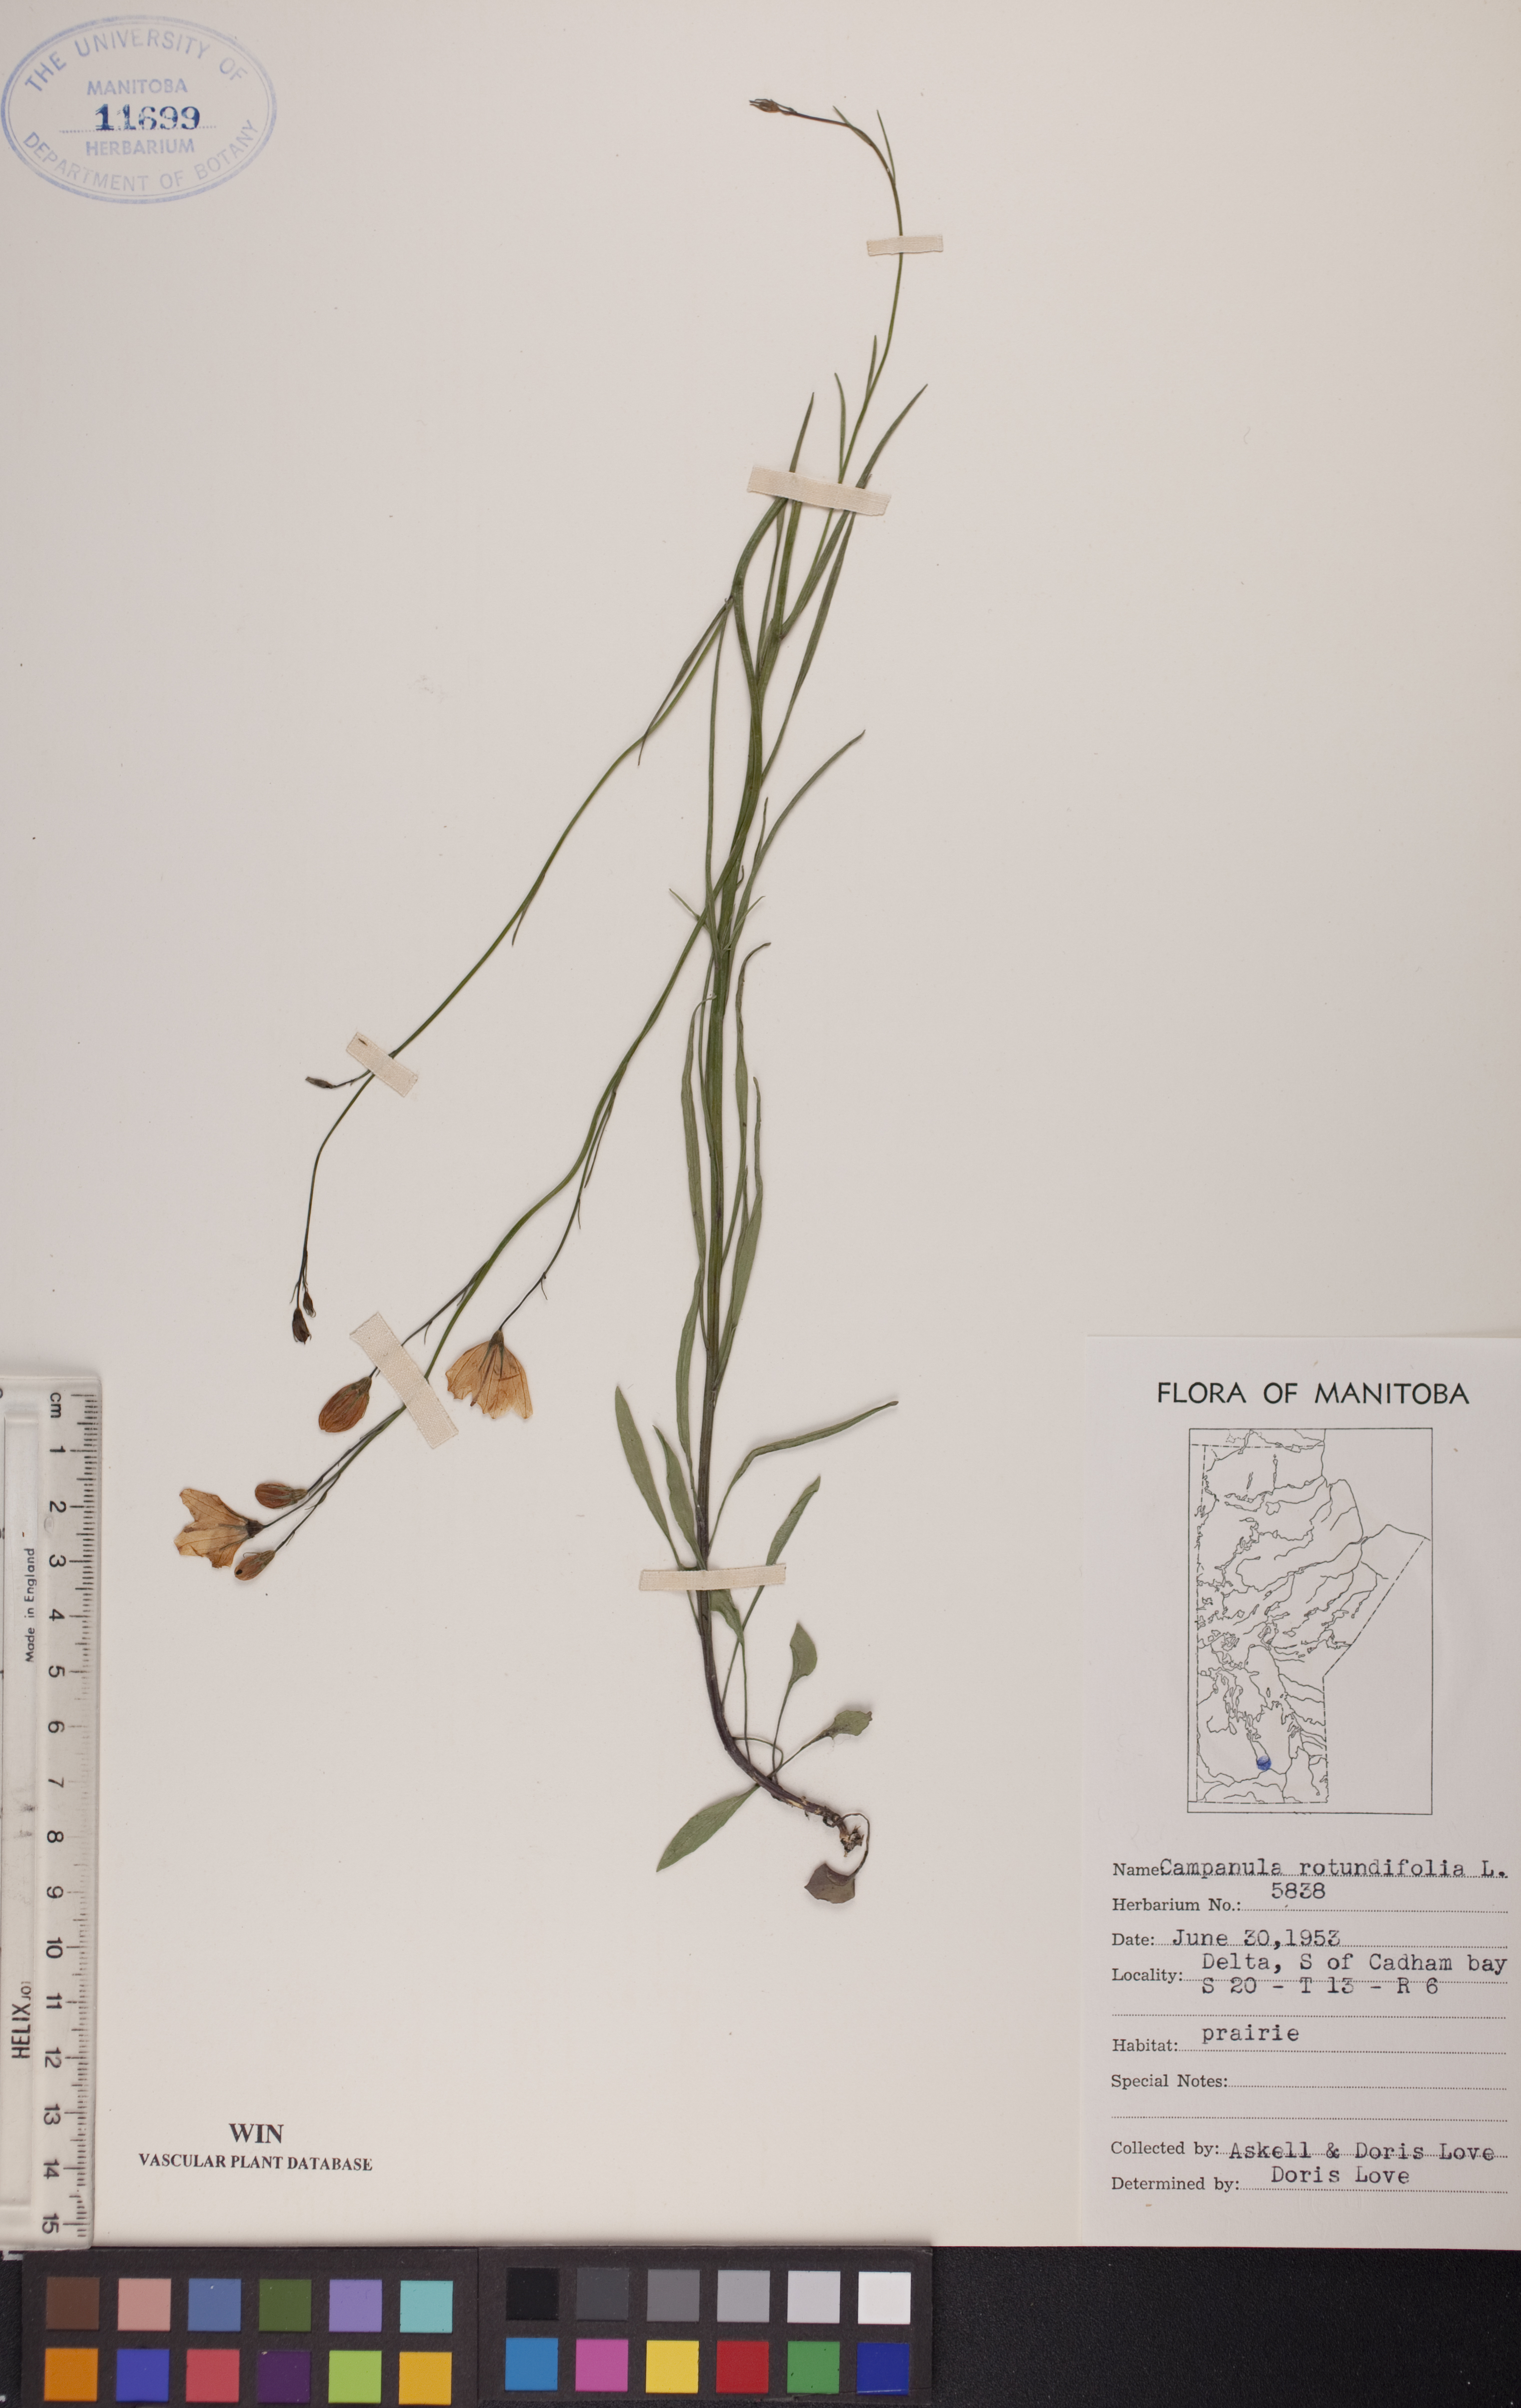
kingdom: Plantae
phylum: Tracheophyta
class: Magnoliopsida
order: Asterales
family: Campanulaceae
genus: Campanula
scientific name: Campanula rotundifolia
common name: Harebell
